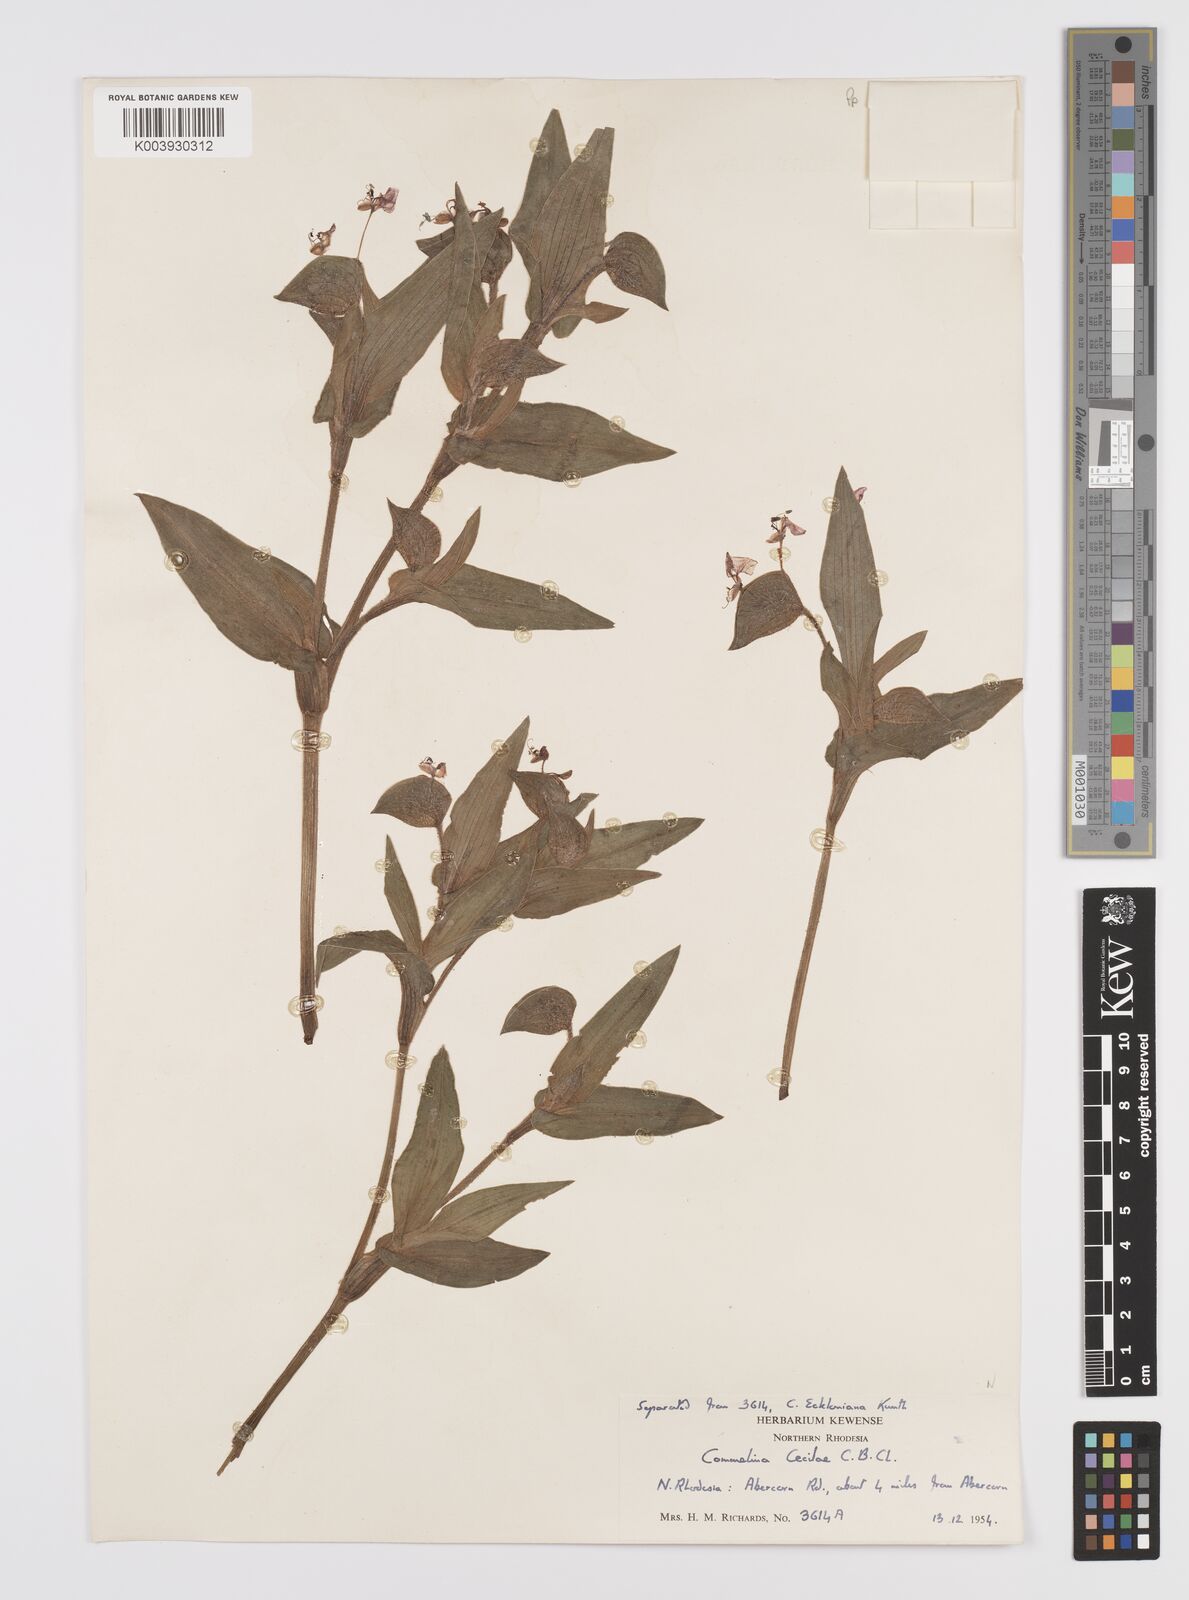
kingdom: Plantae
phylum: Tracheophyta
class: Liliopsida
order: Commelinales
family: Commelinaceae
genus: Commelina
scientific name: Commelina cecilae
